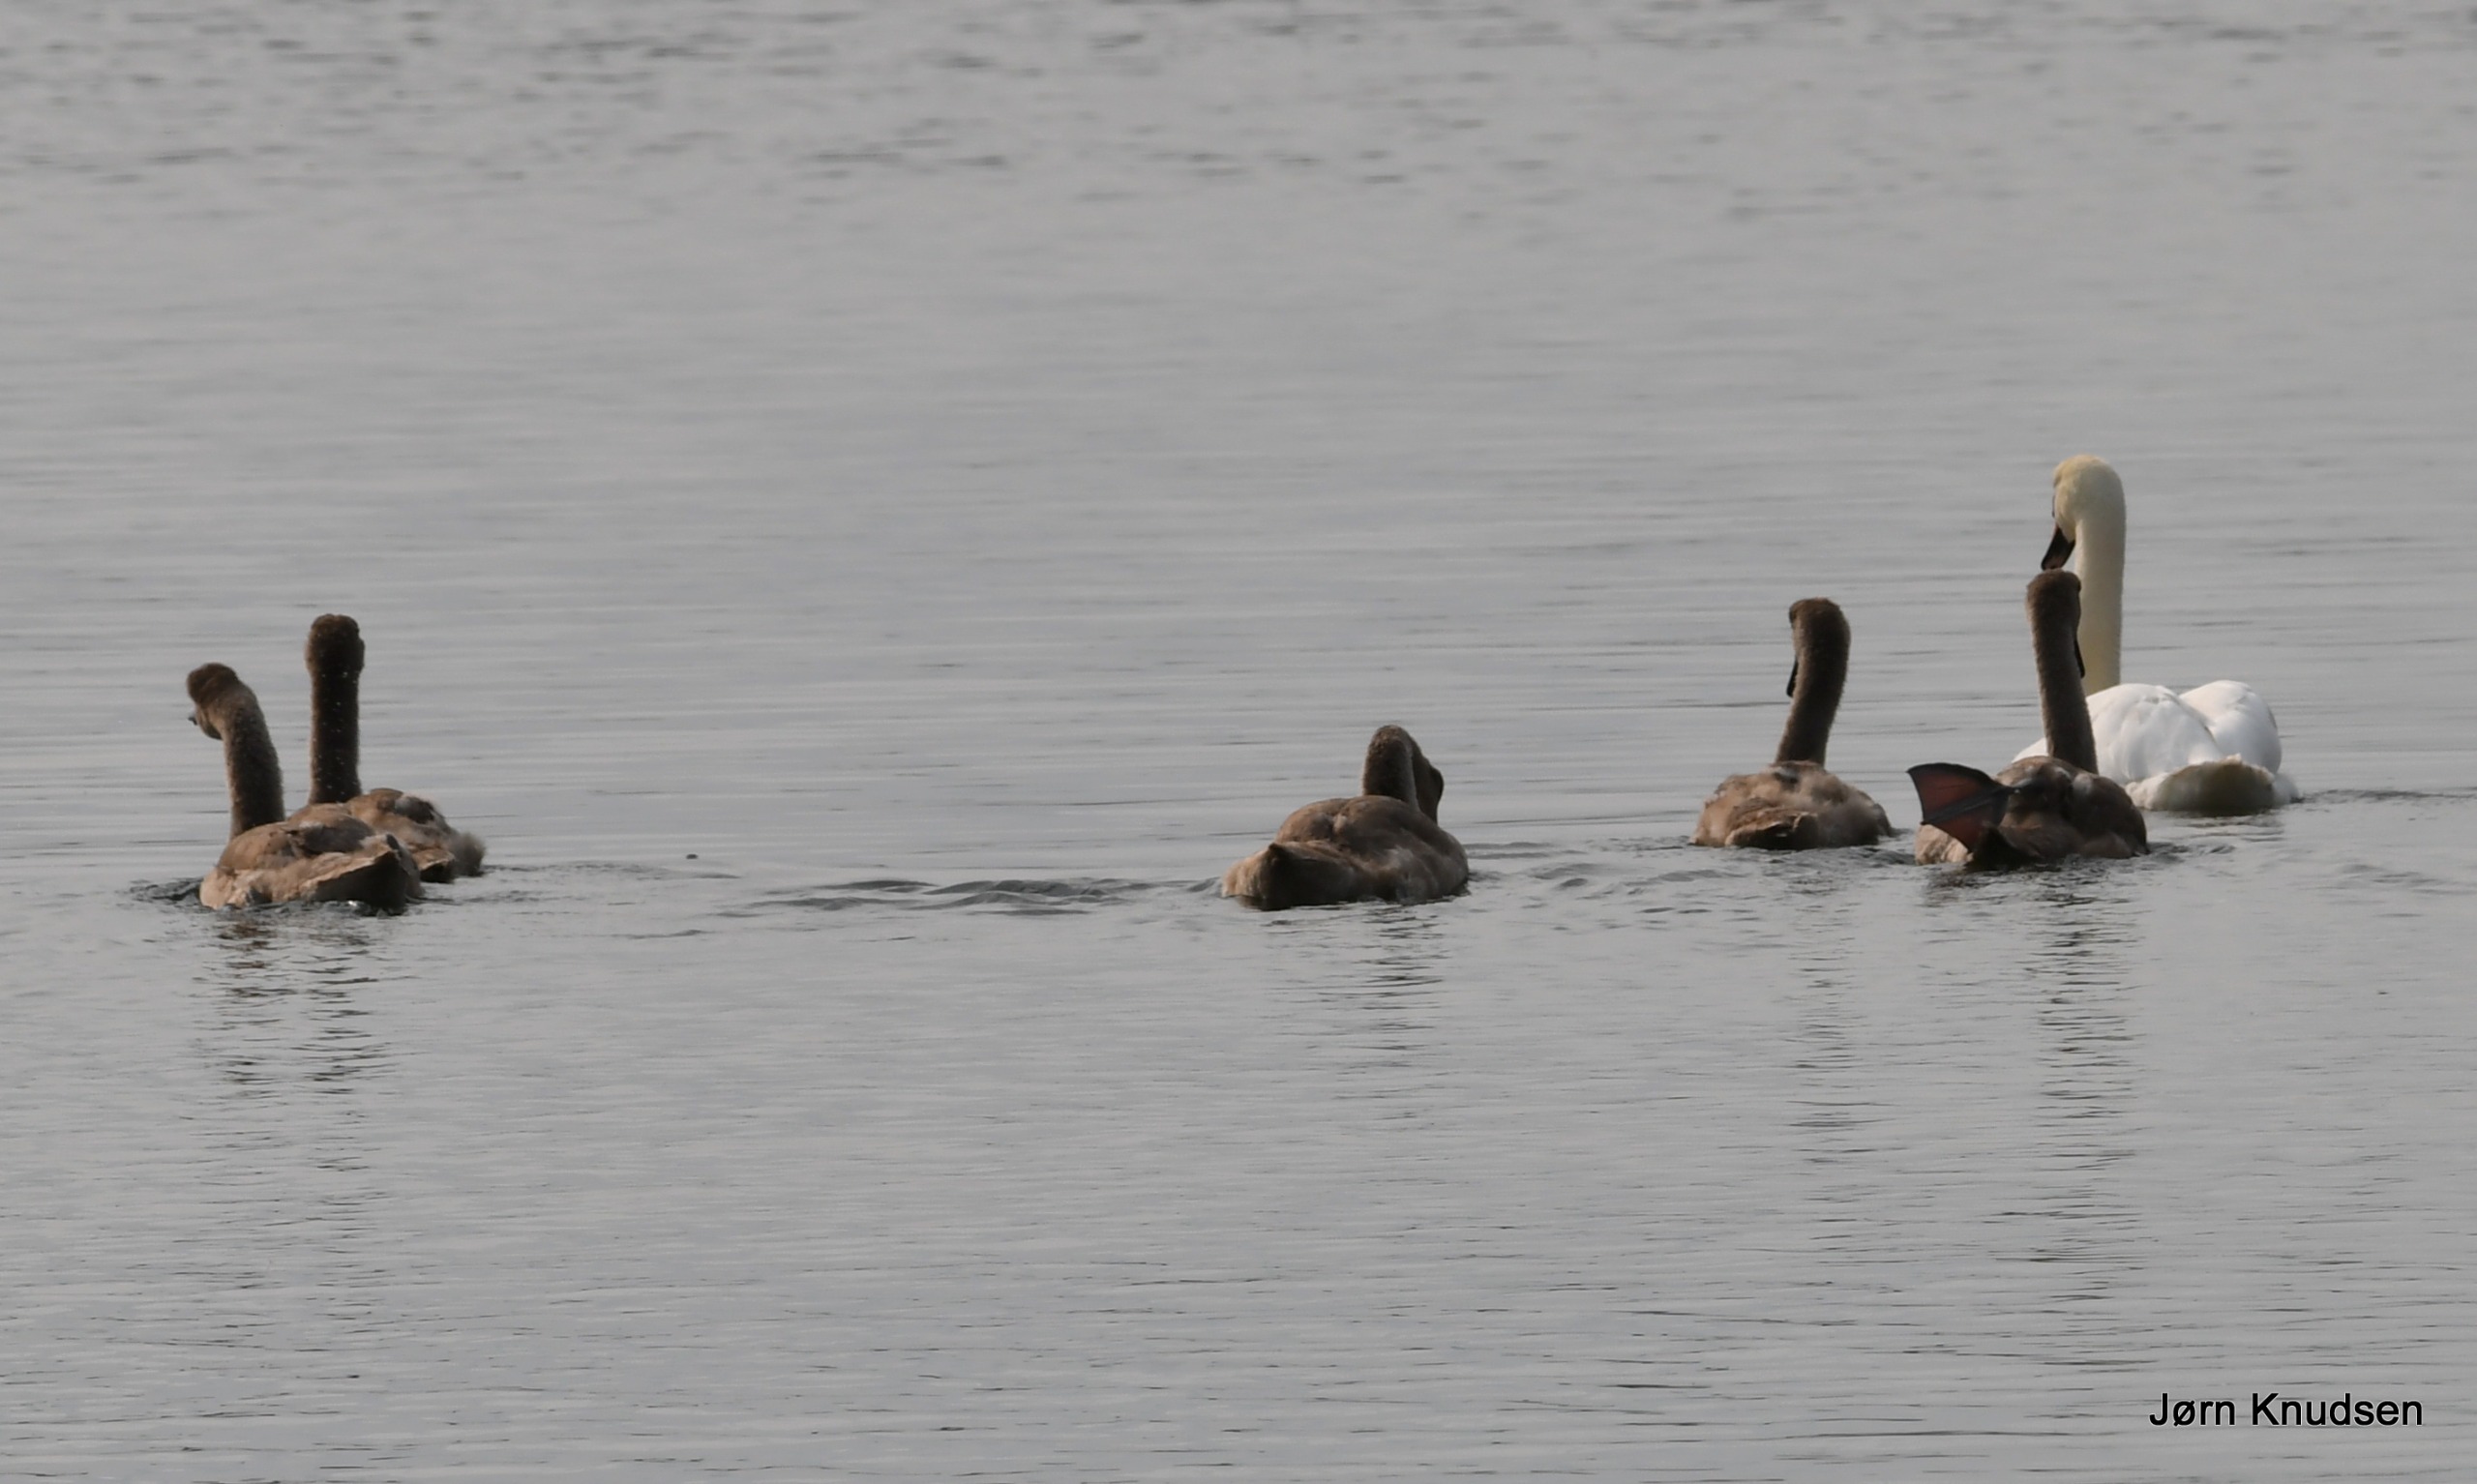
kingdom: Animalia
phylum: Chordata
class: Aves
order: Anseriformes
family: Anatidae
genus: Cygnus
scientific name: Cygnus olor
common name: Knopsvane
